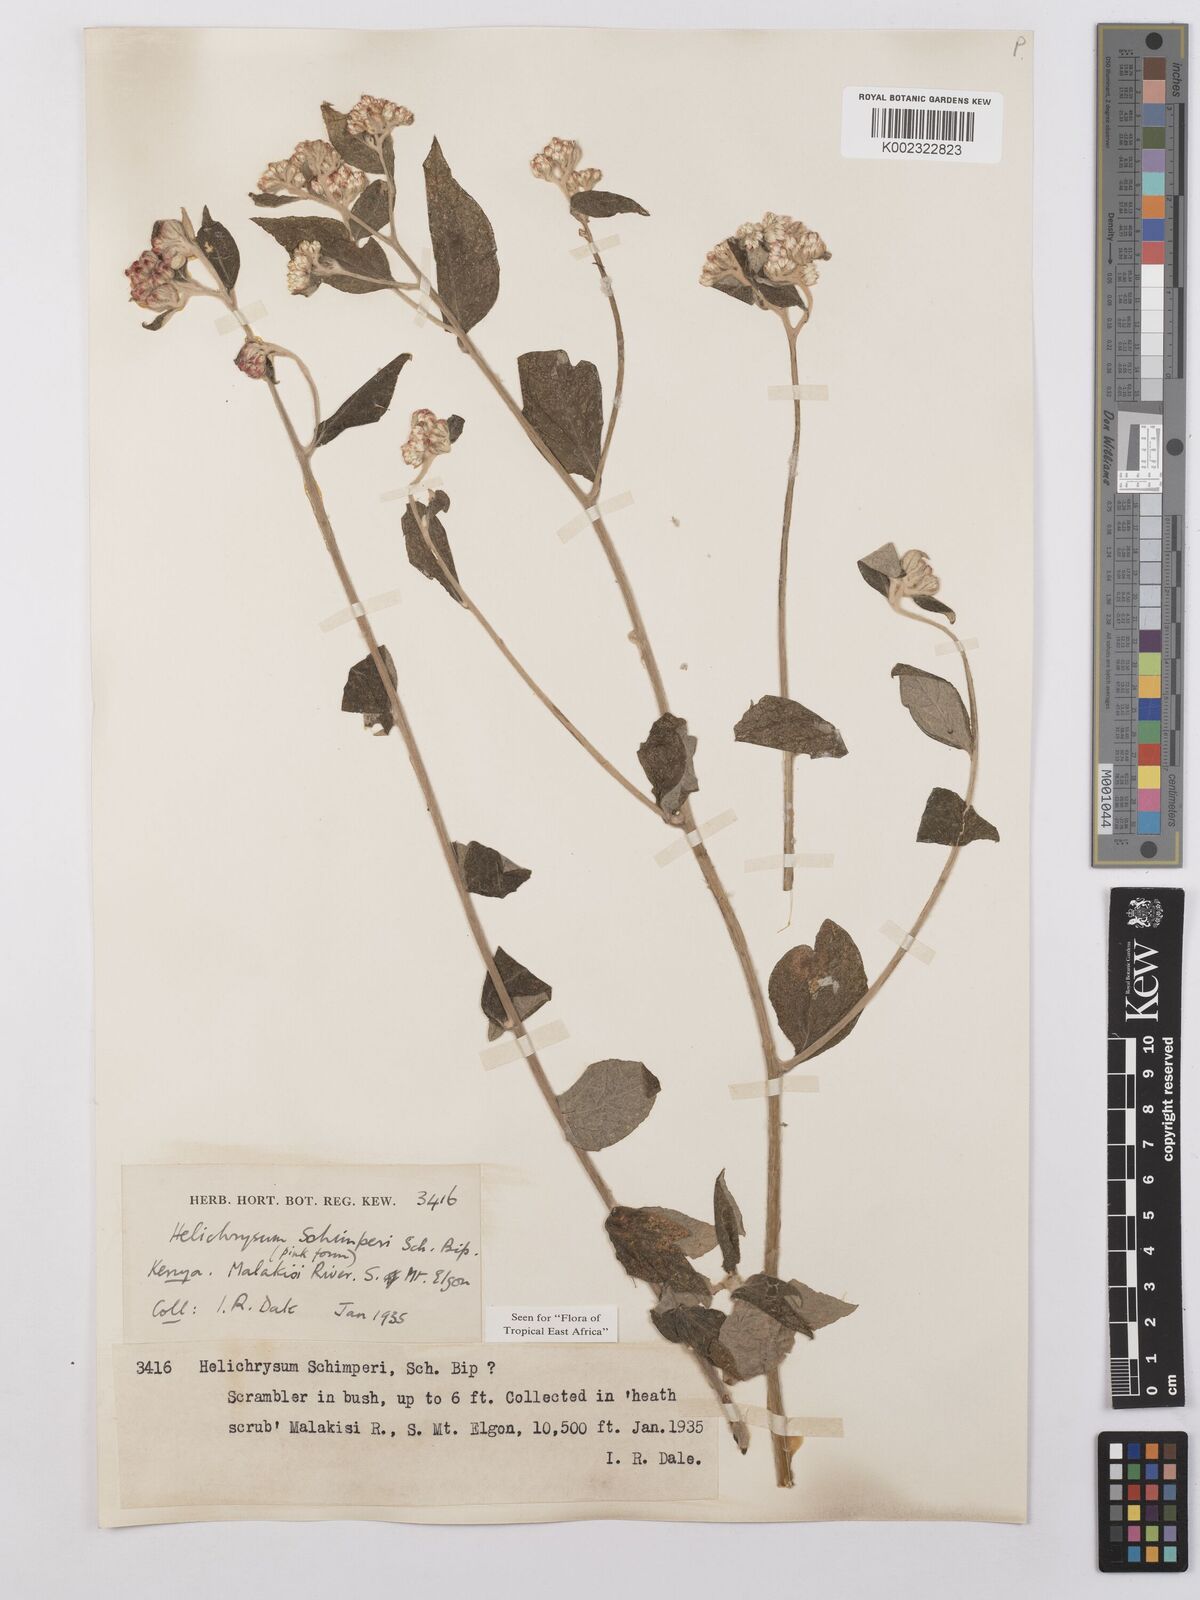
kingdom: Plantae
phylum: Tracheophyta
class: Magnoliopsida
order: Asterales
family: Asteraceae
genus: Helichrysum
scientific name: Helichrysum schimperi
